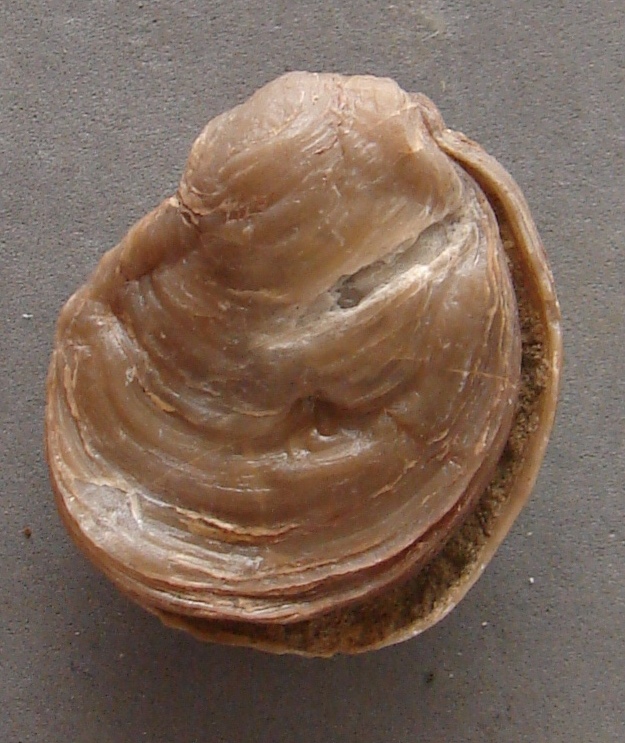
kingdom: Animalia
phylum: Mollusca
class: Bivalvia
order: Ostreida
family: Flemingostreidae
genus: Liostrea
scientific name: Liostrea
